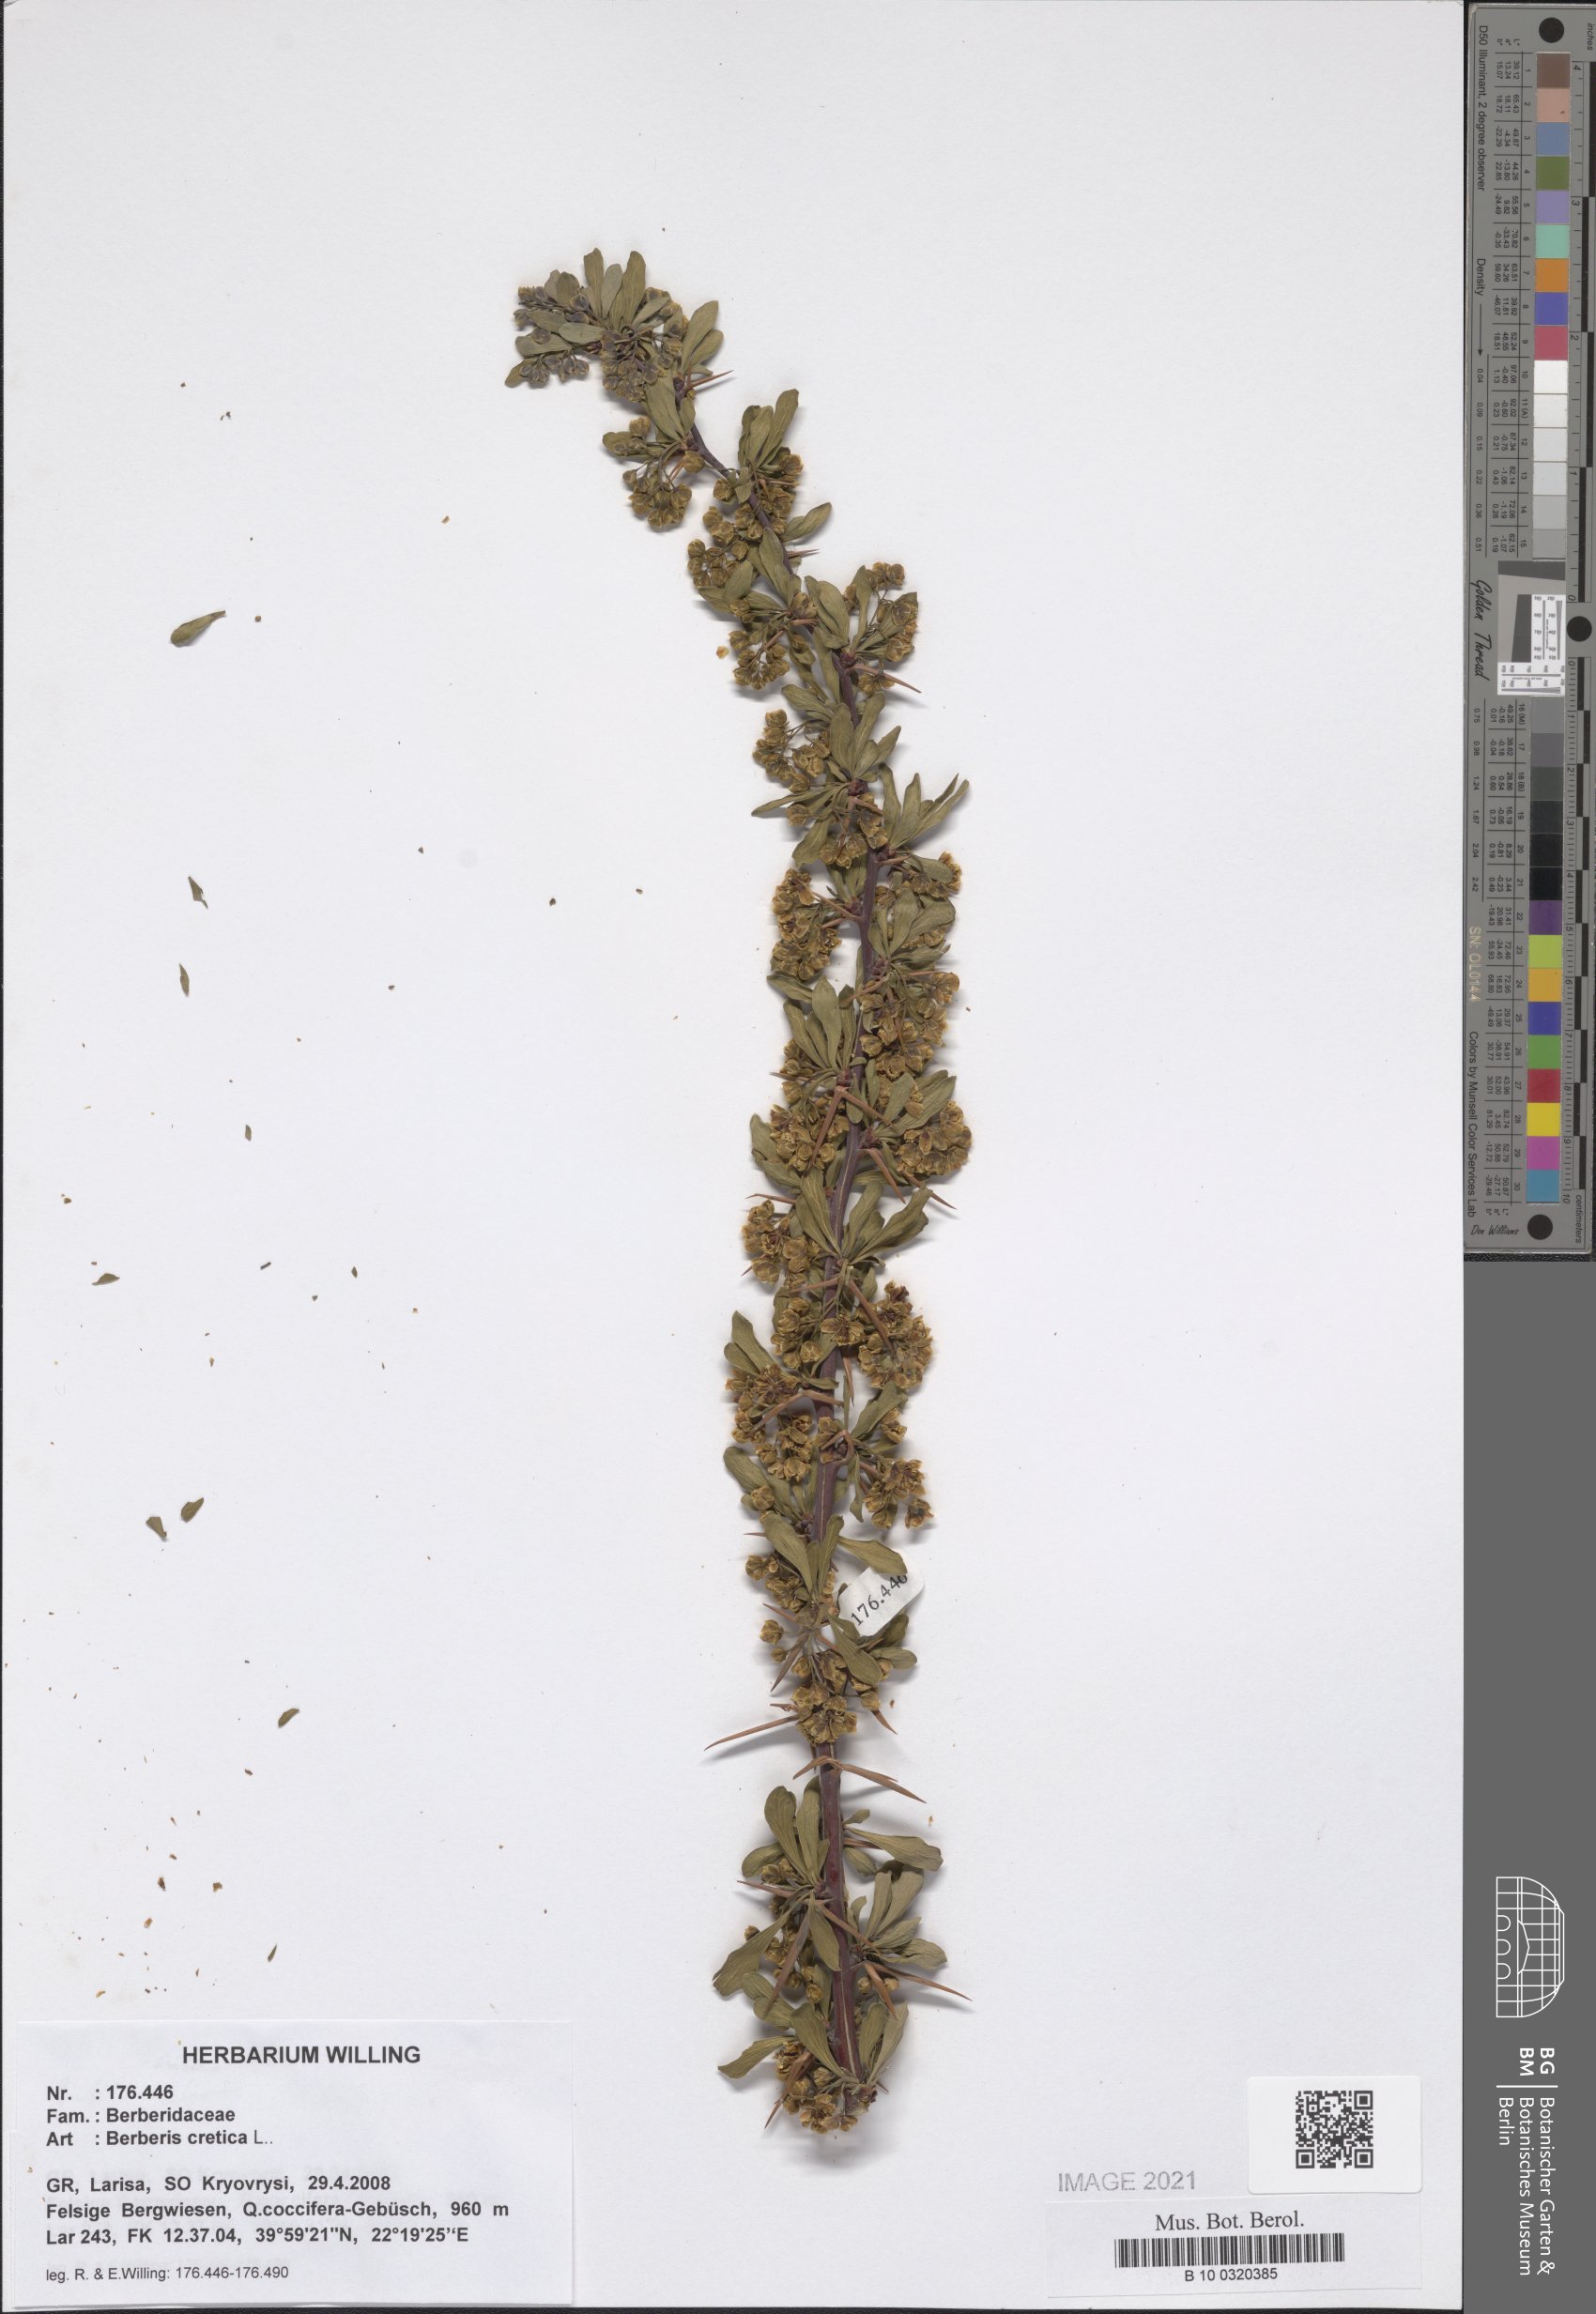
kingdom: Plantae
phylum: Tracheophyta
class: Magnoliopsida
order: Ranunculales
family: Berberidaceae
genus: Berberis
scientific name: Berberis cretica
